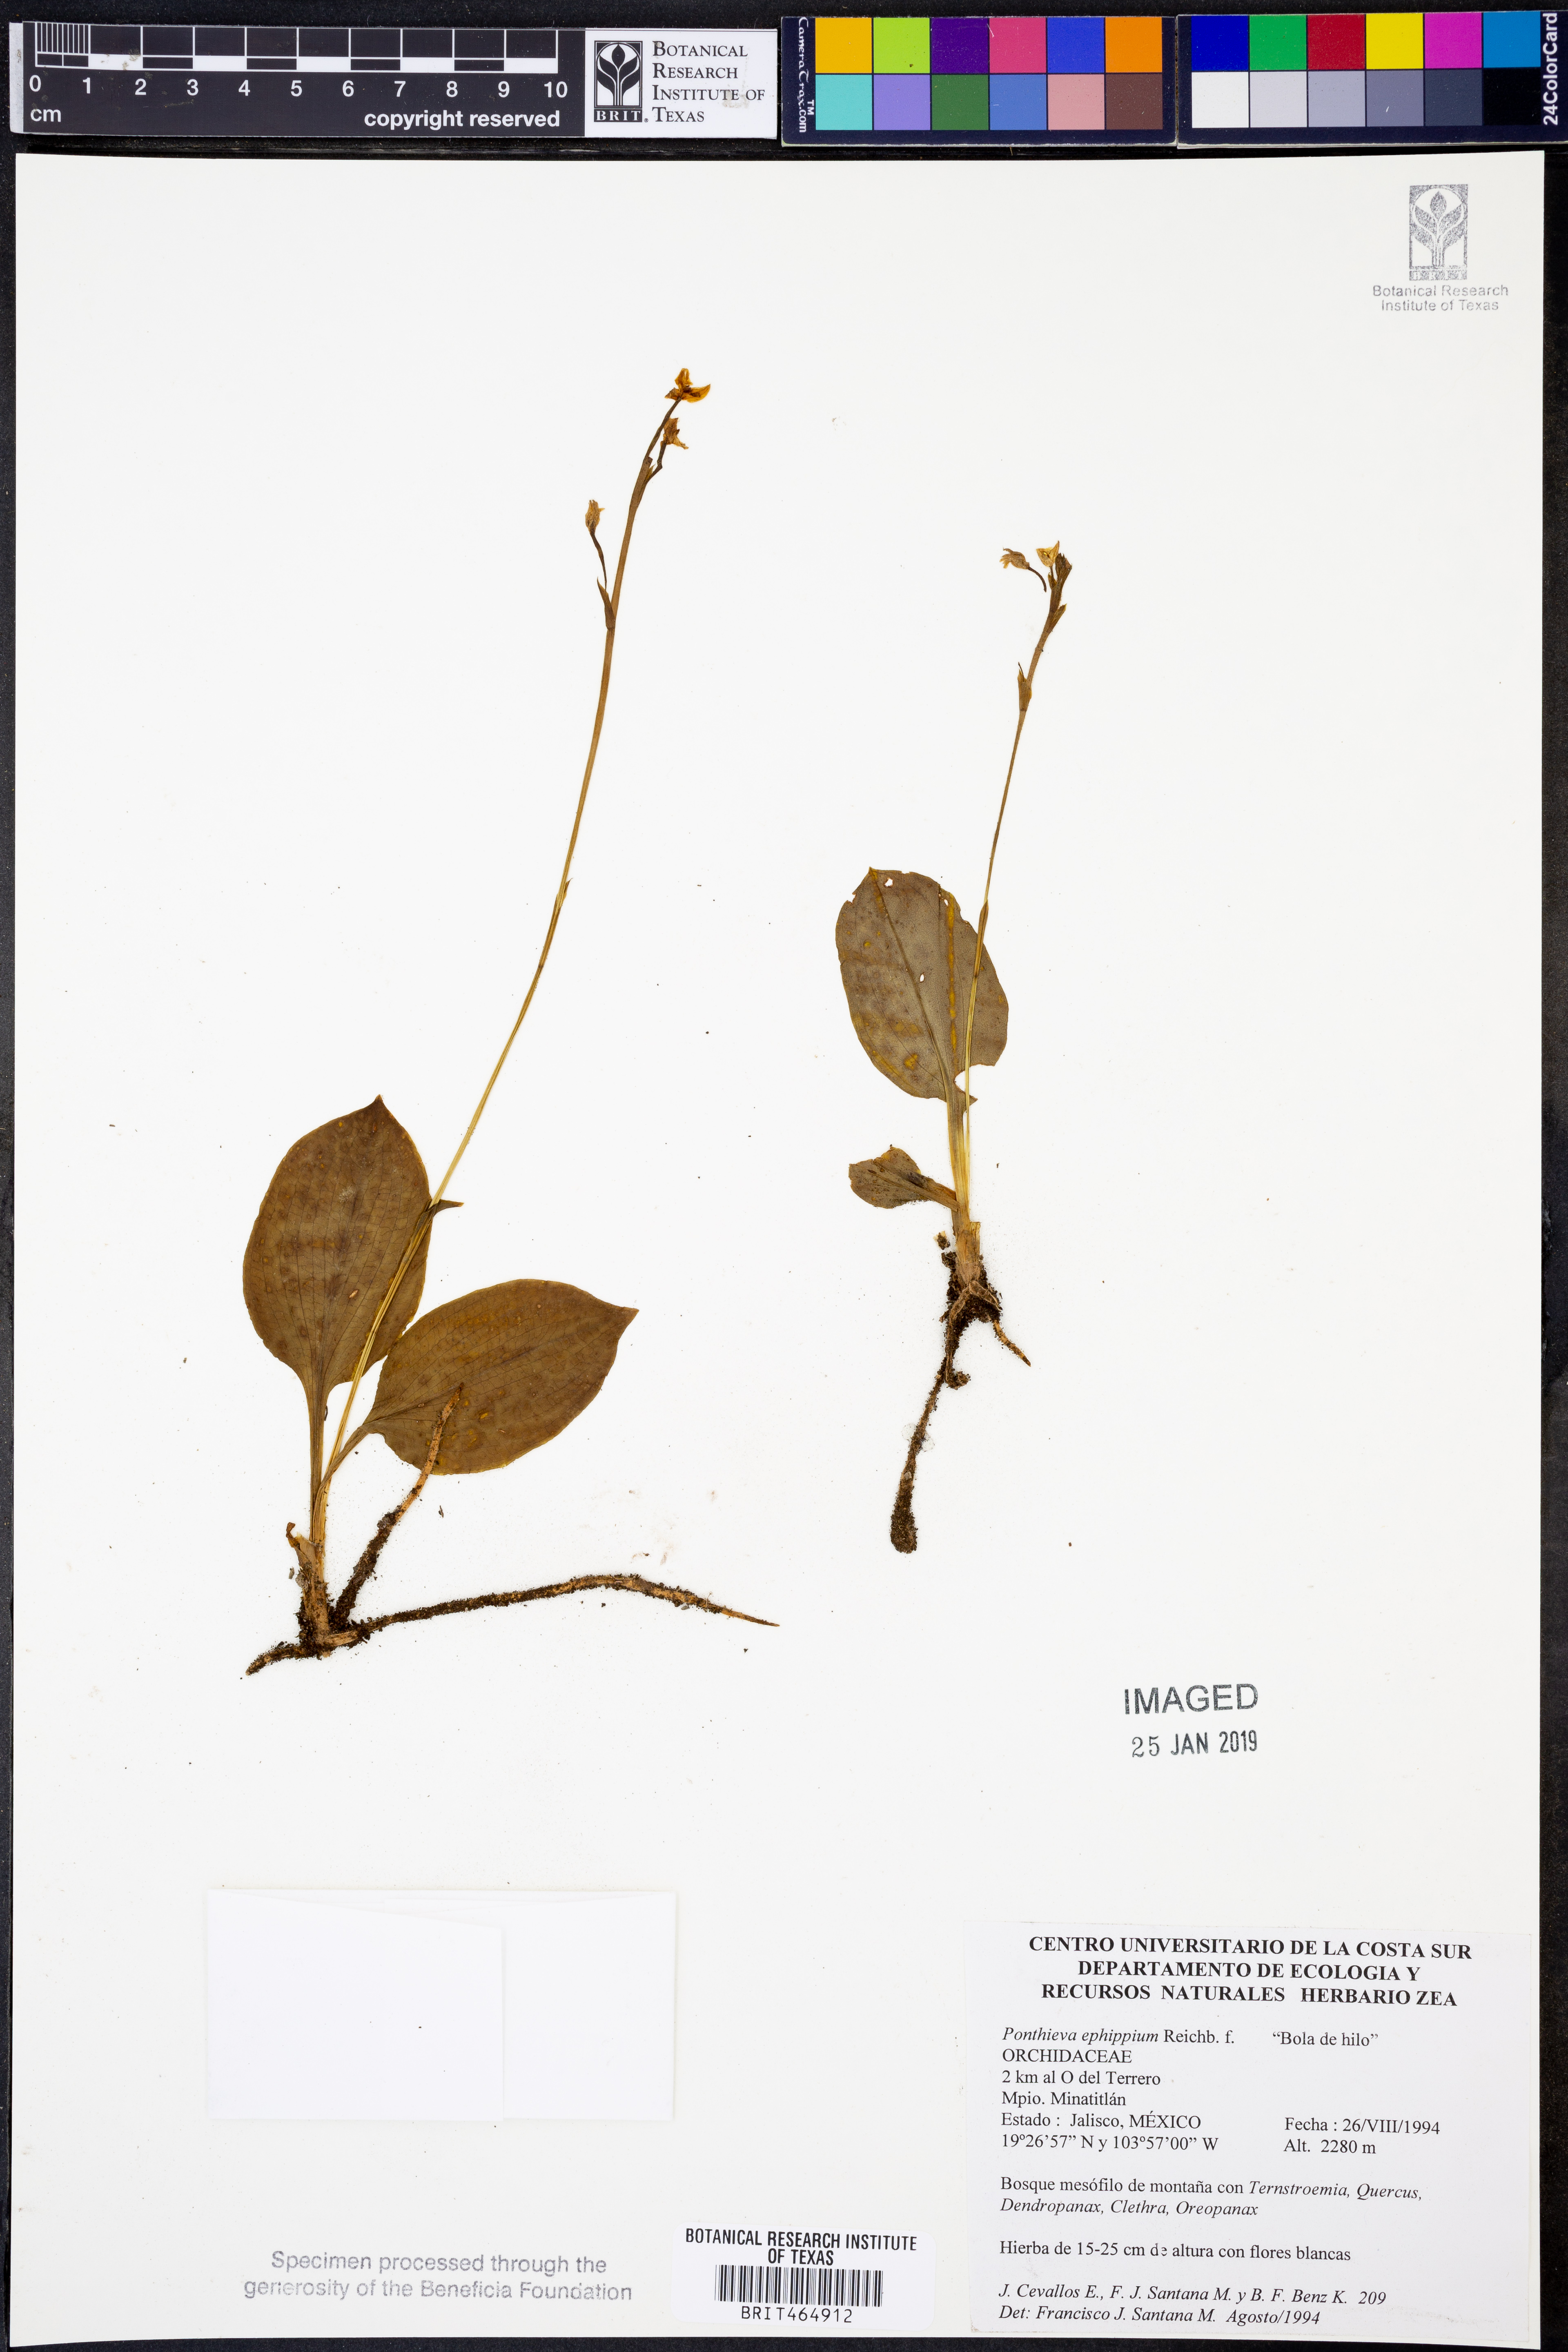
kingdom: Plantae
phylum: Tracheophyta
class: Liliopsida
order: Asparagales
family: Orchidaceae
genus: Ponthieva
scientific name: Ponthieva ephippium
